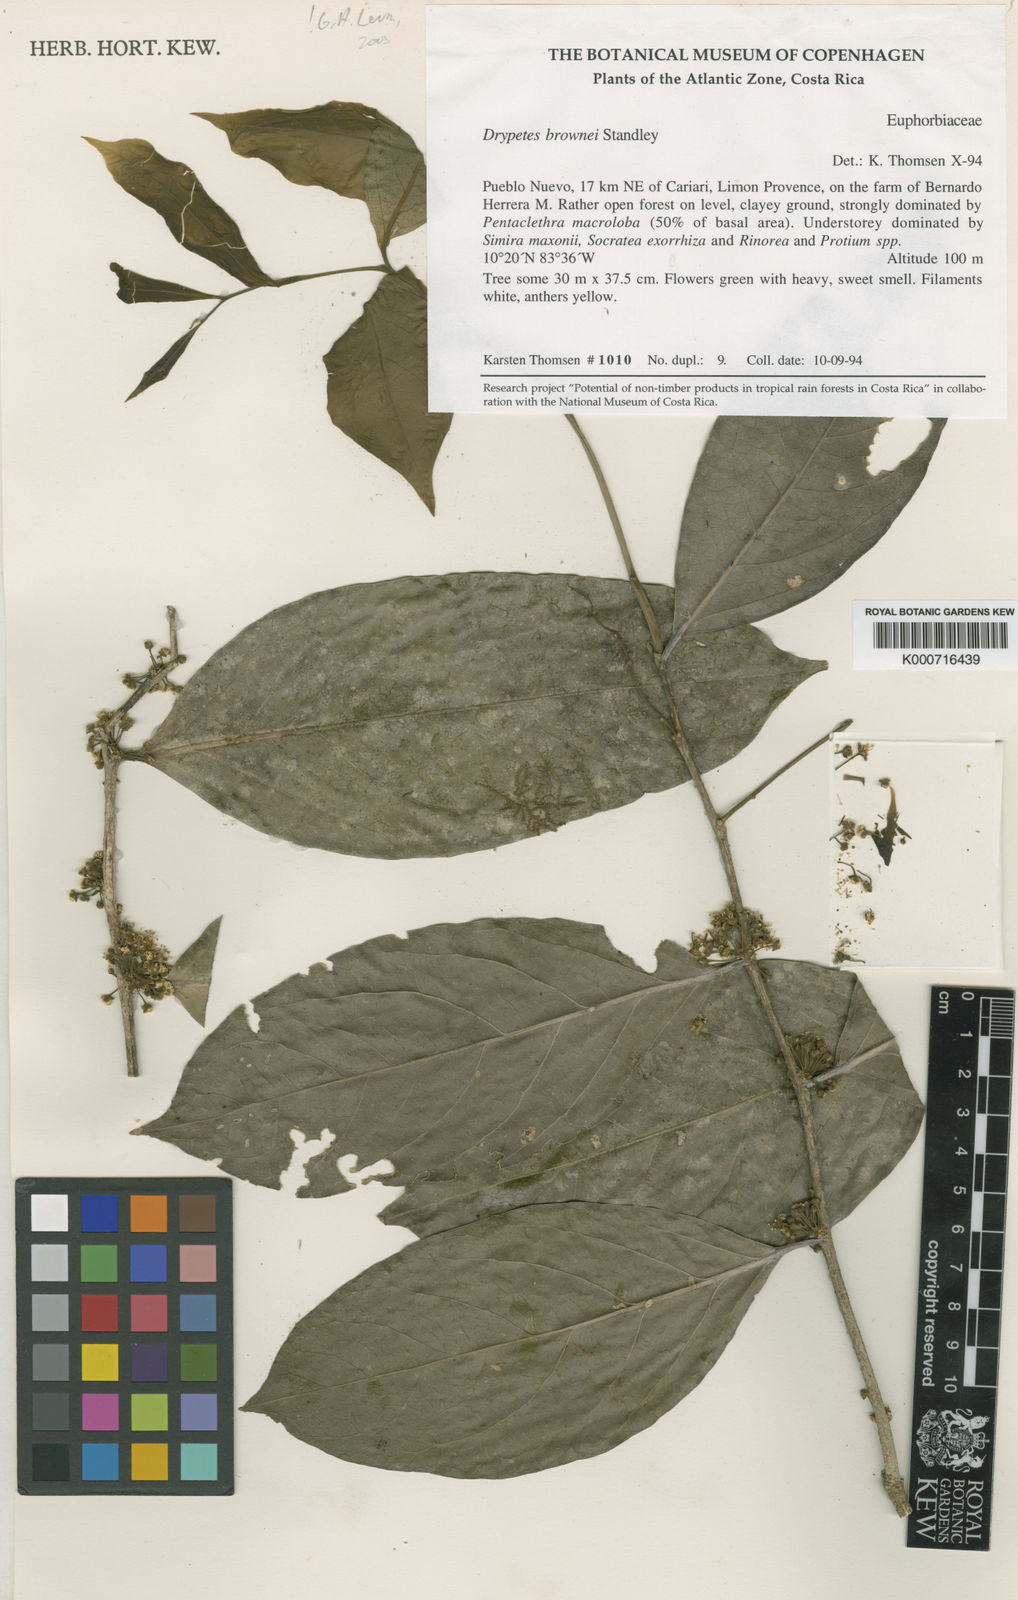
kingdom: Plantae
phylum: Tracheophyta
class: Magnoliopsida
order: Malpighiales
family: Putranjivaceae
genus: Drypetes
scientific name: Drypetes brownii
